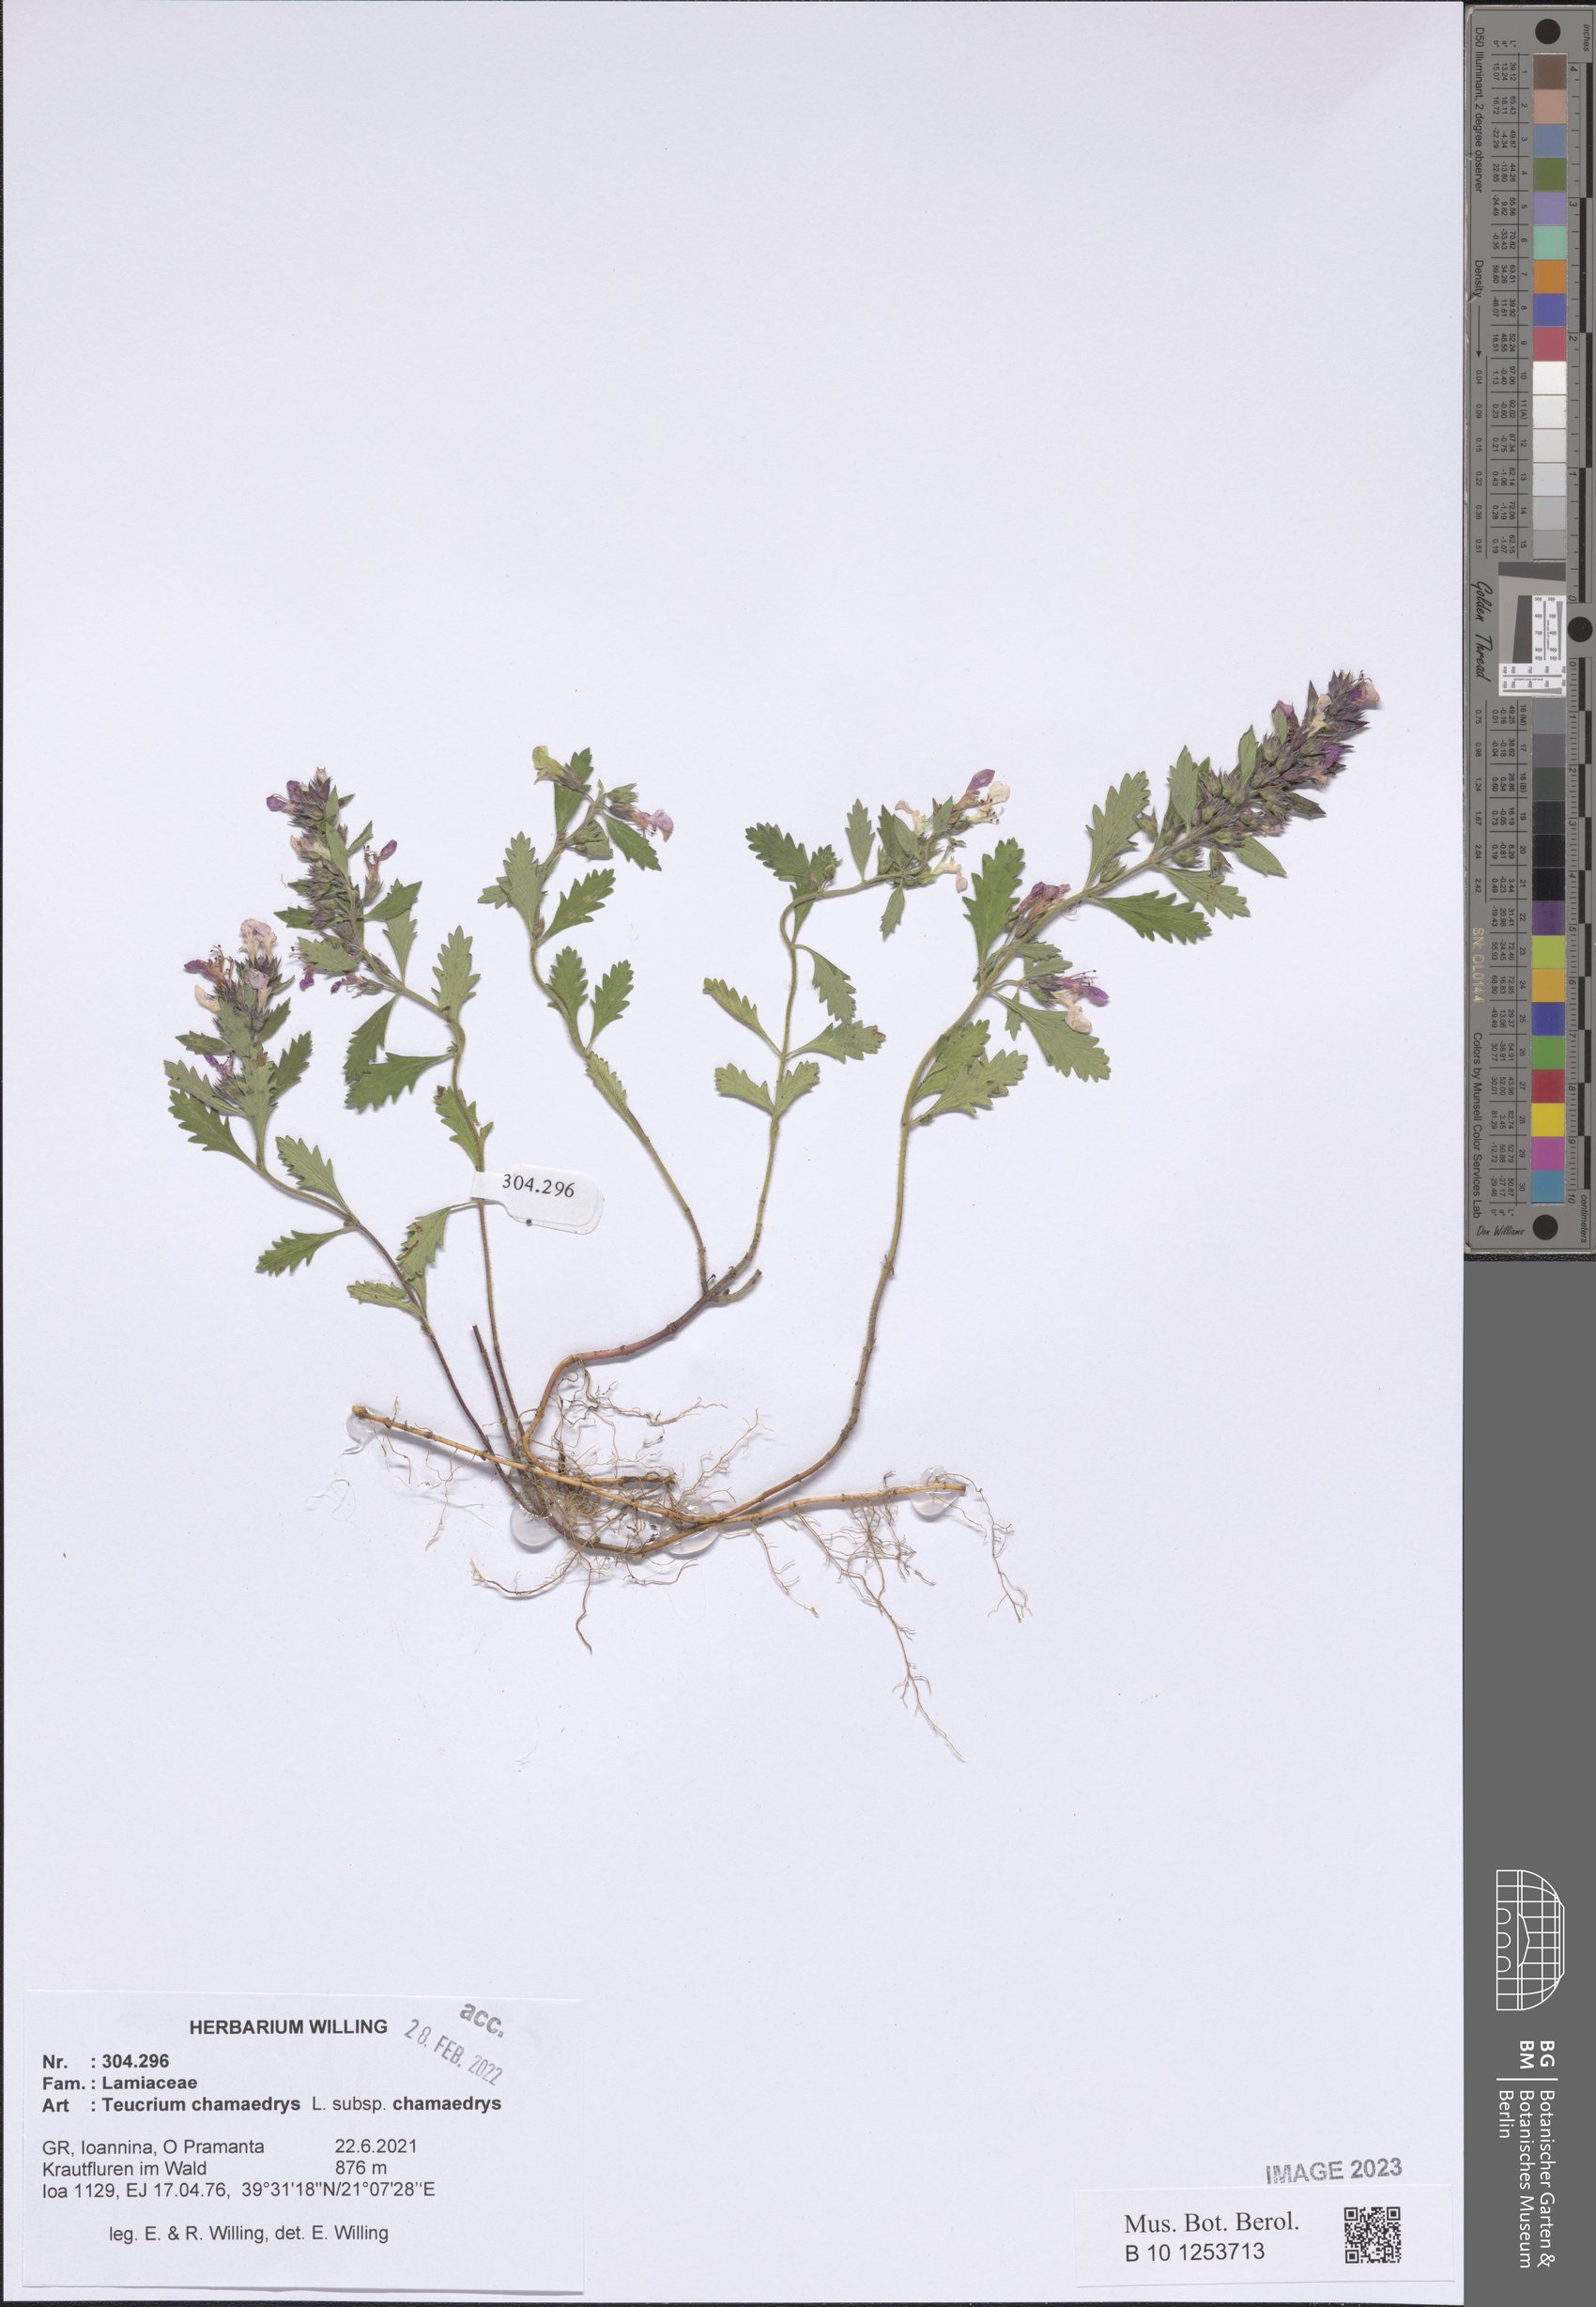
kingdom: Plantae
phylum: Tracheophyta
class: Magnoliopsida
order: Lamiales
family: Lamiaceae
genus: Teucrium
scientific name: Teucrium chamaedrys
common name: Wall germander
